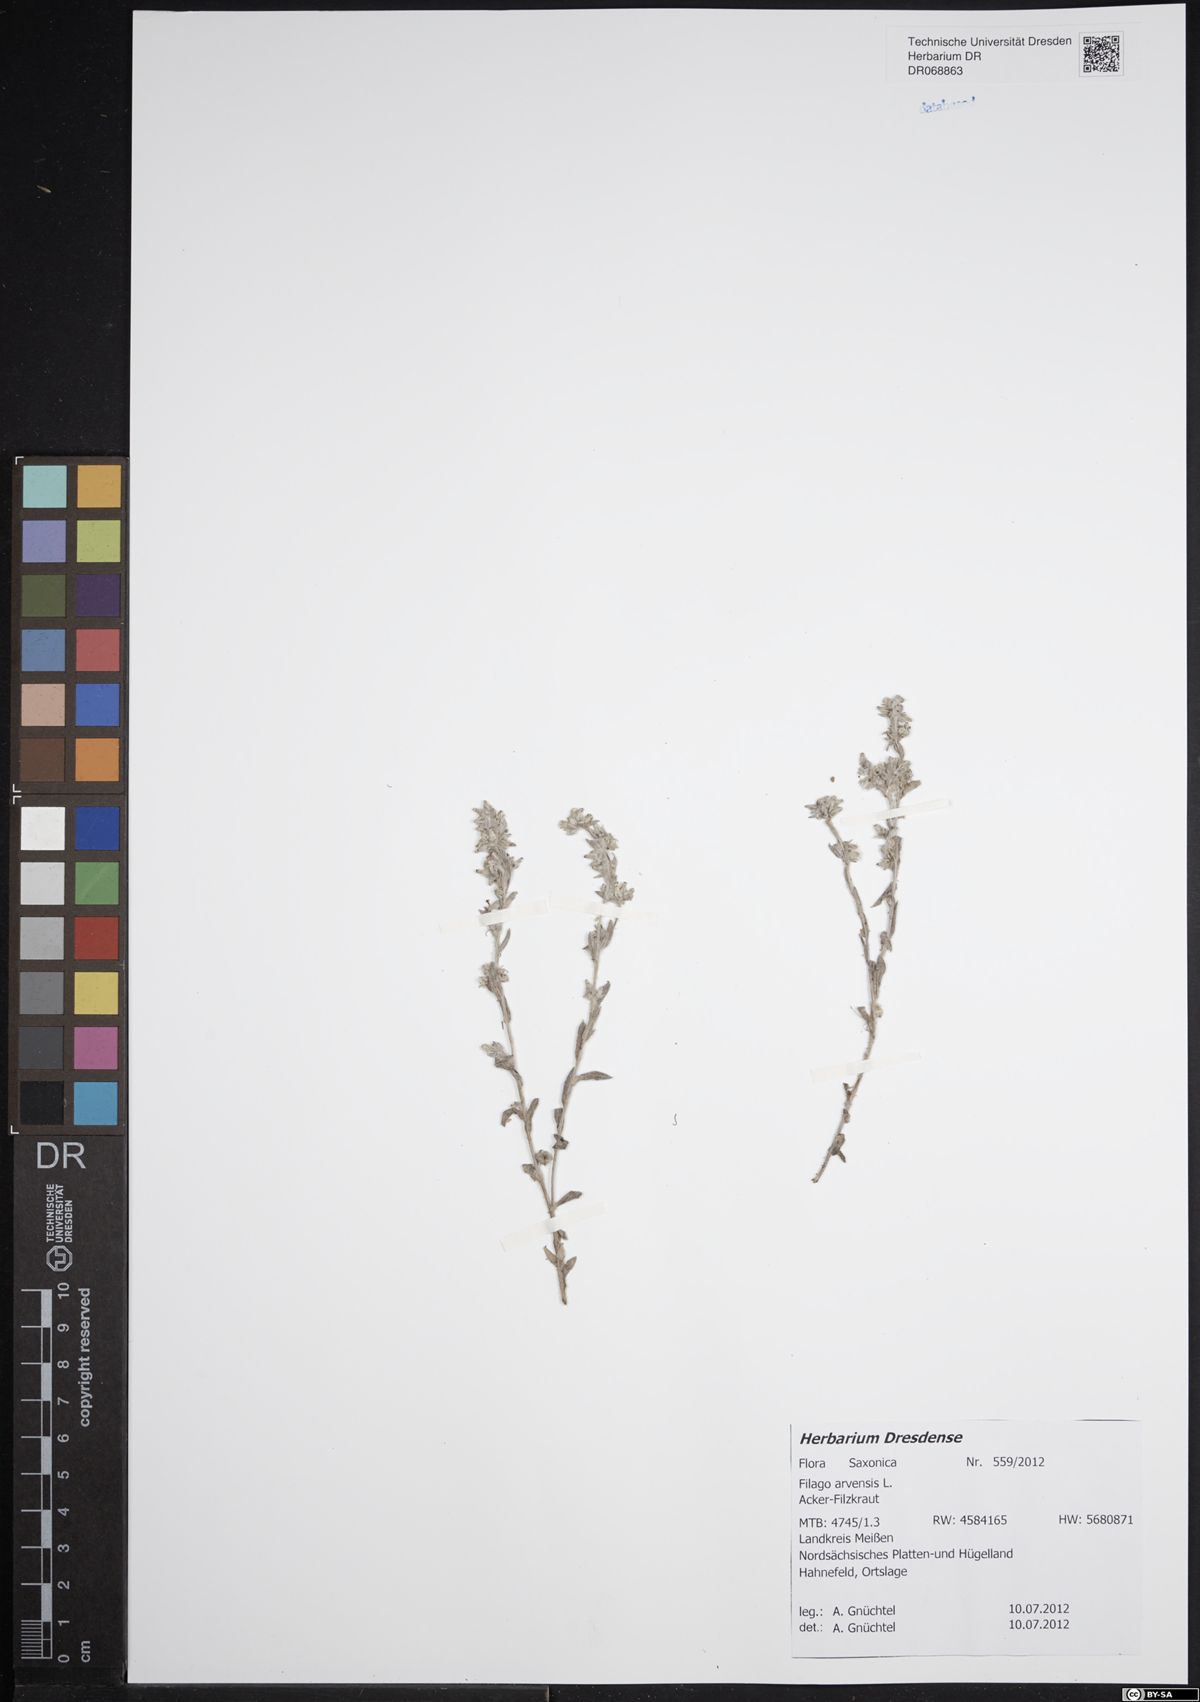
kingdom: Plantae
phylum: Tracheophyta
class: Magnoliopsida
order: Asterales
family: Asteraceae
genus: Filago
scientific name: Filago arvensis
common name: Field cudweed
